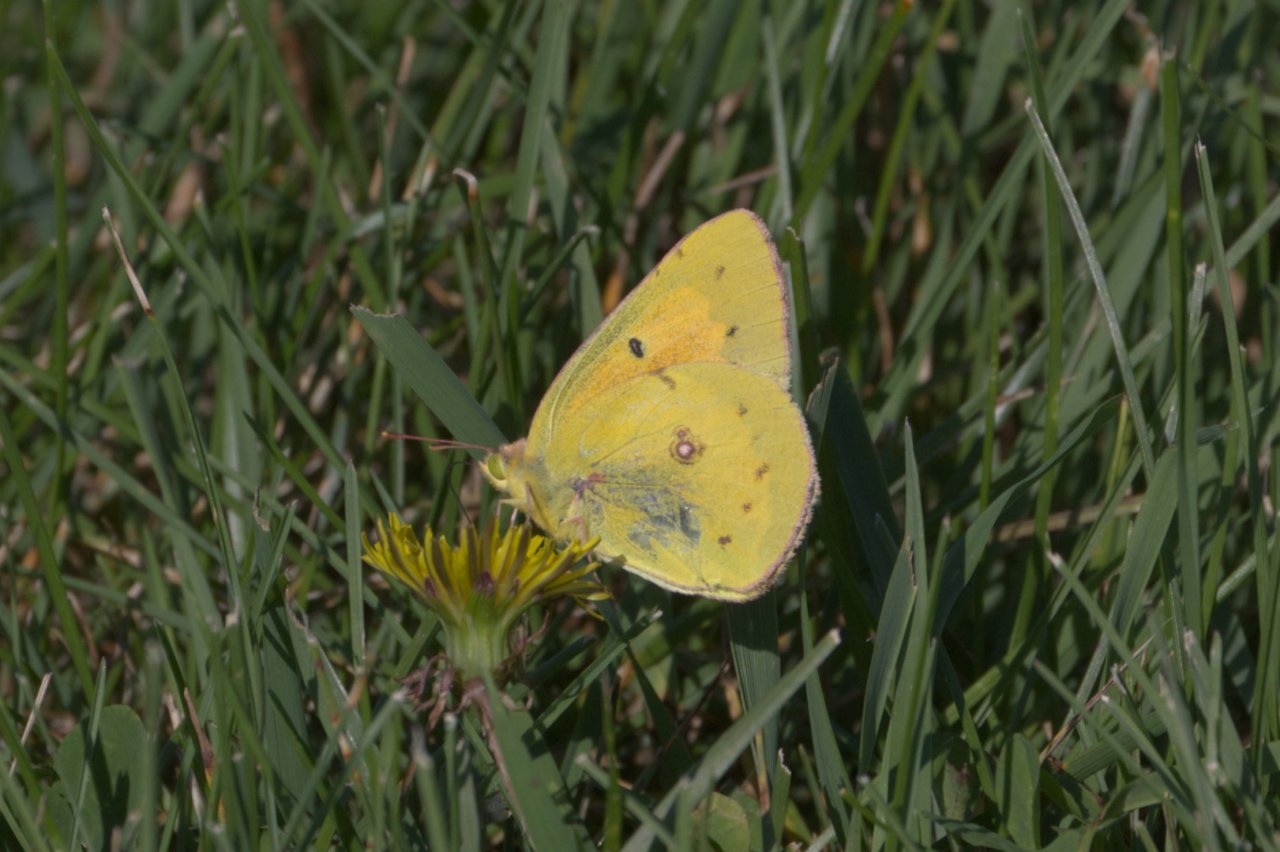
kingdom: Animalia
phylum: Arthropoda
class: Insecta
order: Lepidoptera
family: Pieridae
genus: Colias
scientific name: Colias eurytheme
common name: Orange Sulphur
